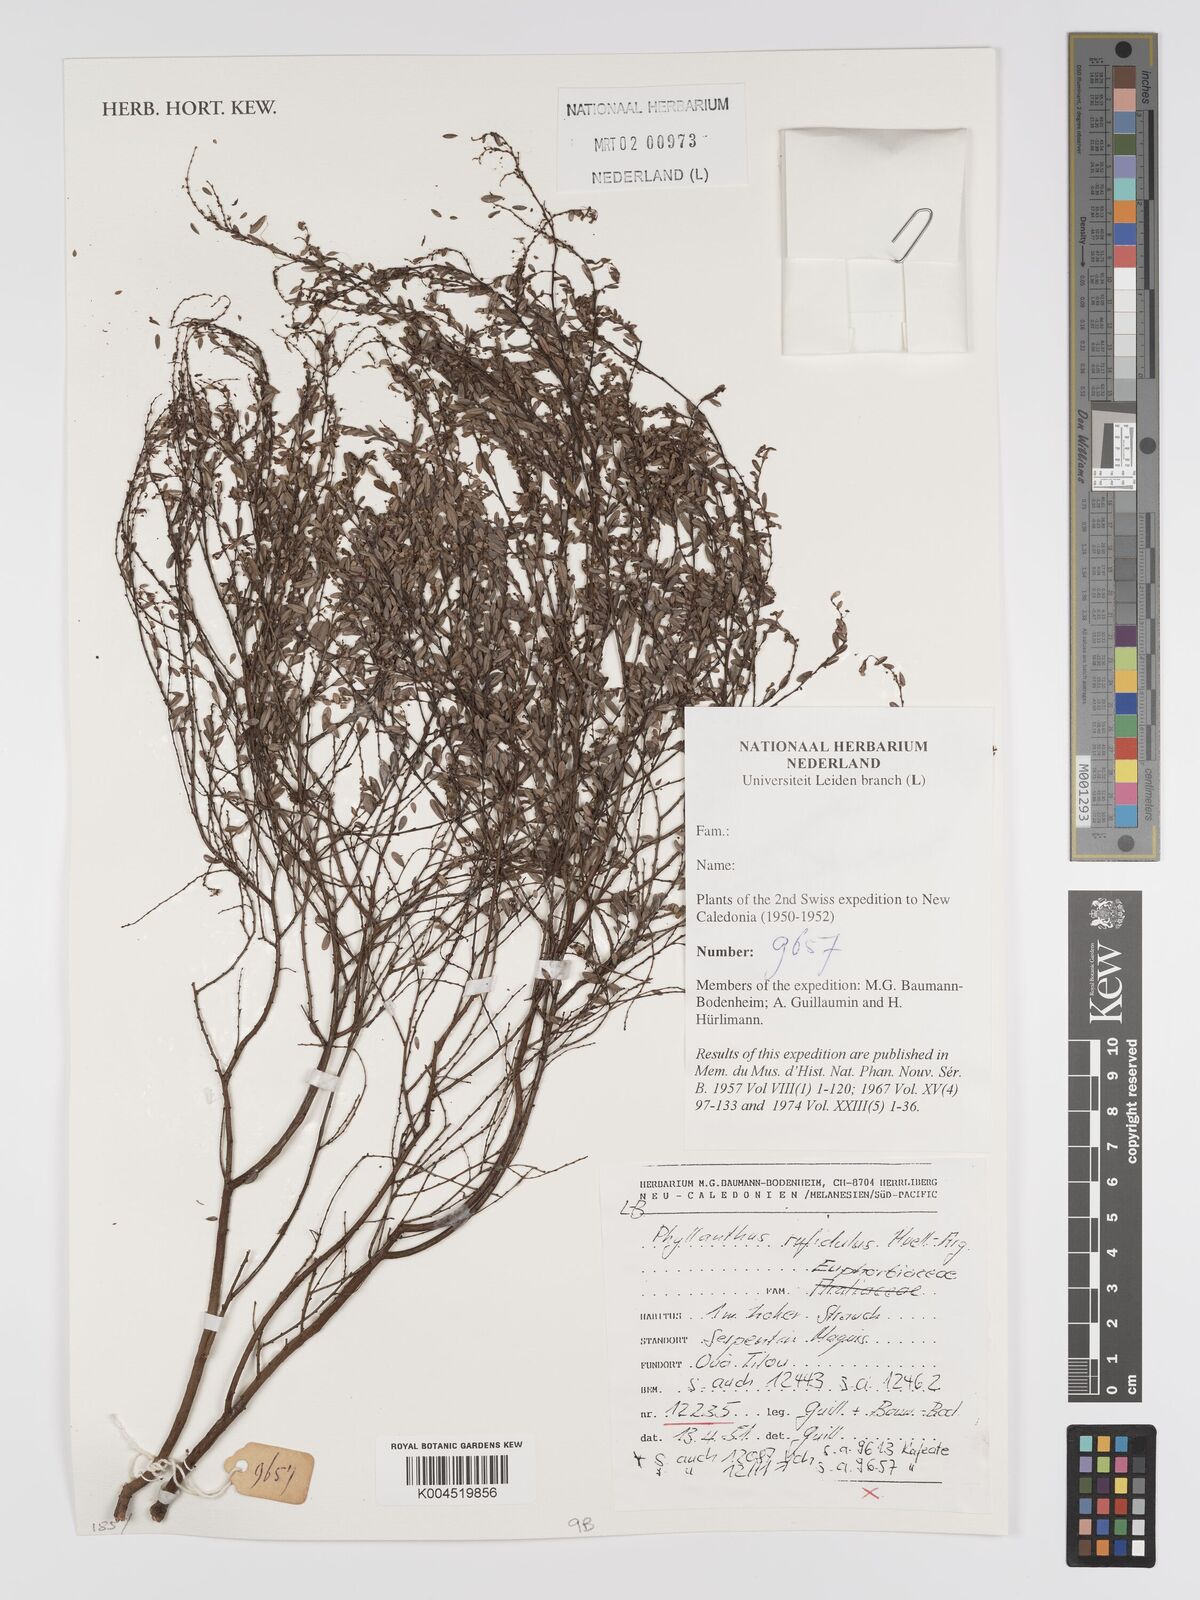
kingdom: Plantae
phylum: Tracheophyta
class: Magnoliopsida
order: Malpighiales
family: Phyllanthaceae
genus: Phyllanthus
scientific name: Phyllanthus chrysanthus
